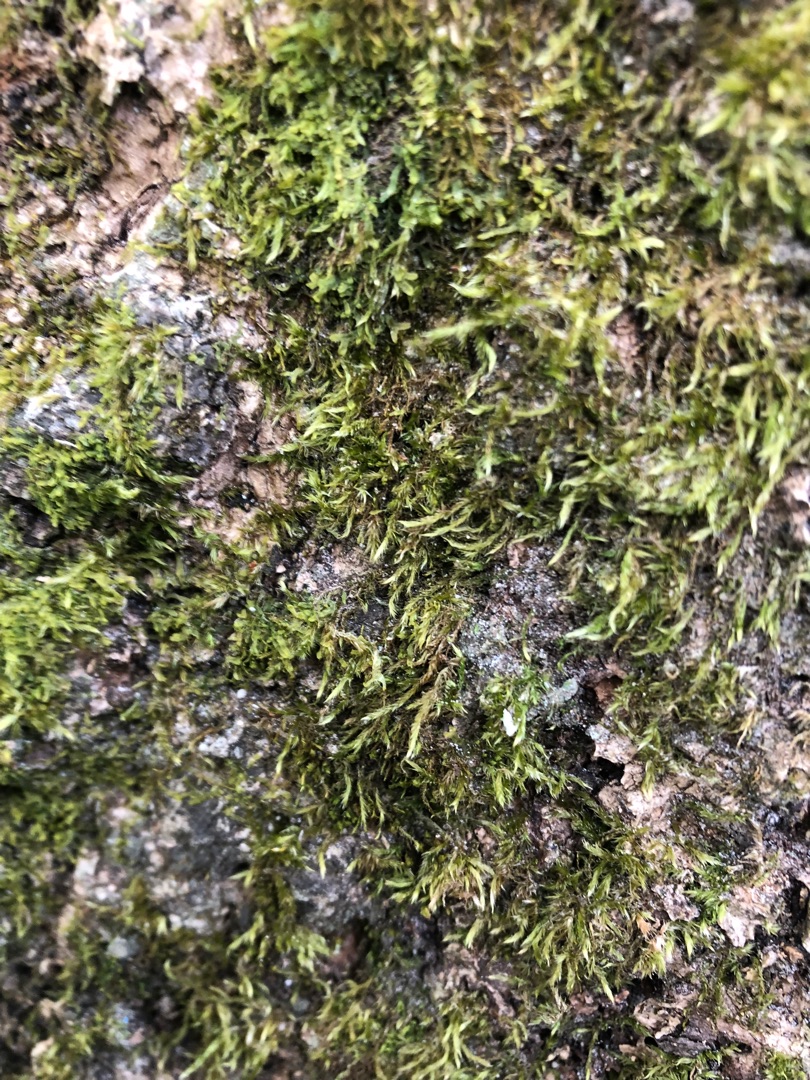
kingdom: Plantae
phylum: Bryophyta
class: Bryopsida
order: Hypnales
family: Hypnaceae
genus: Hypnum
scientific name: Hypnum
